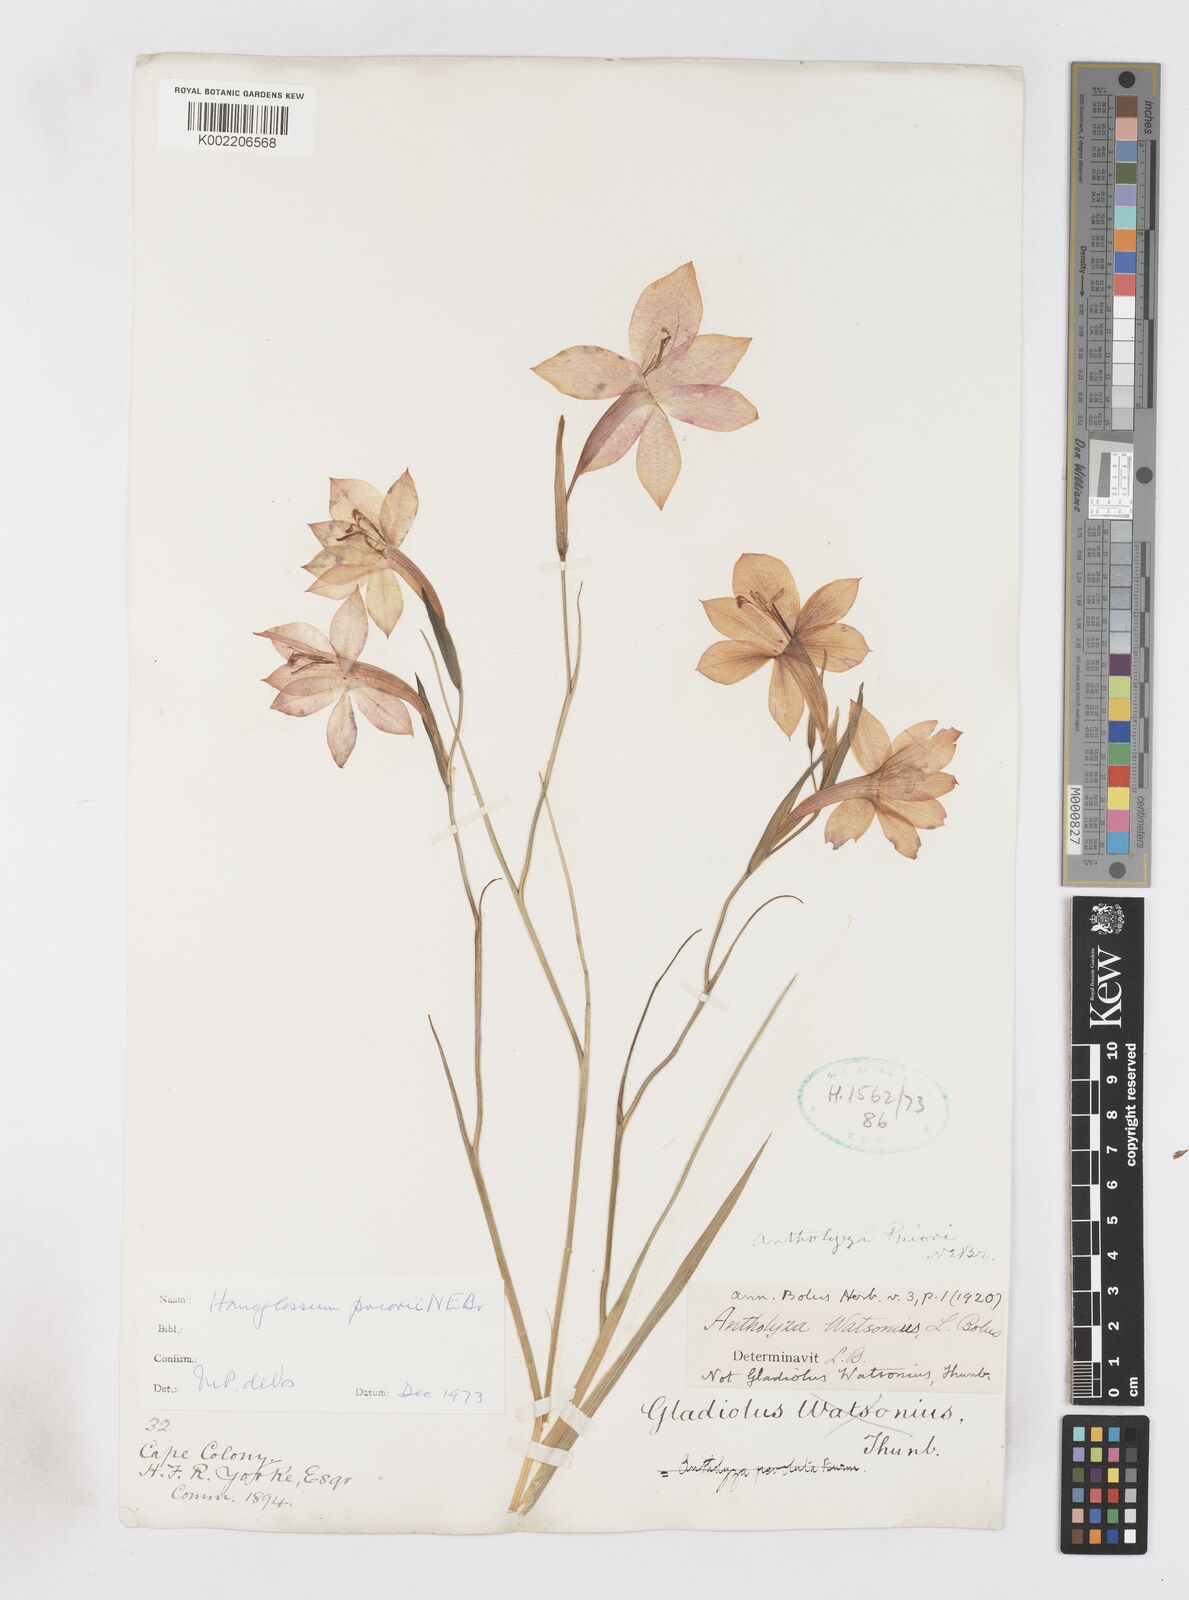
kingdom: Plantae
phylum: Tracheophyta
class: Liliopsida
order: Asparagales
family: Iridaceae
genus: Gladiolus
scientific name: Gladiolus priorii
